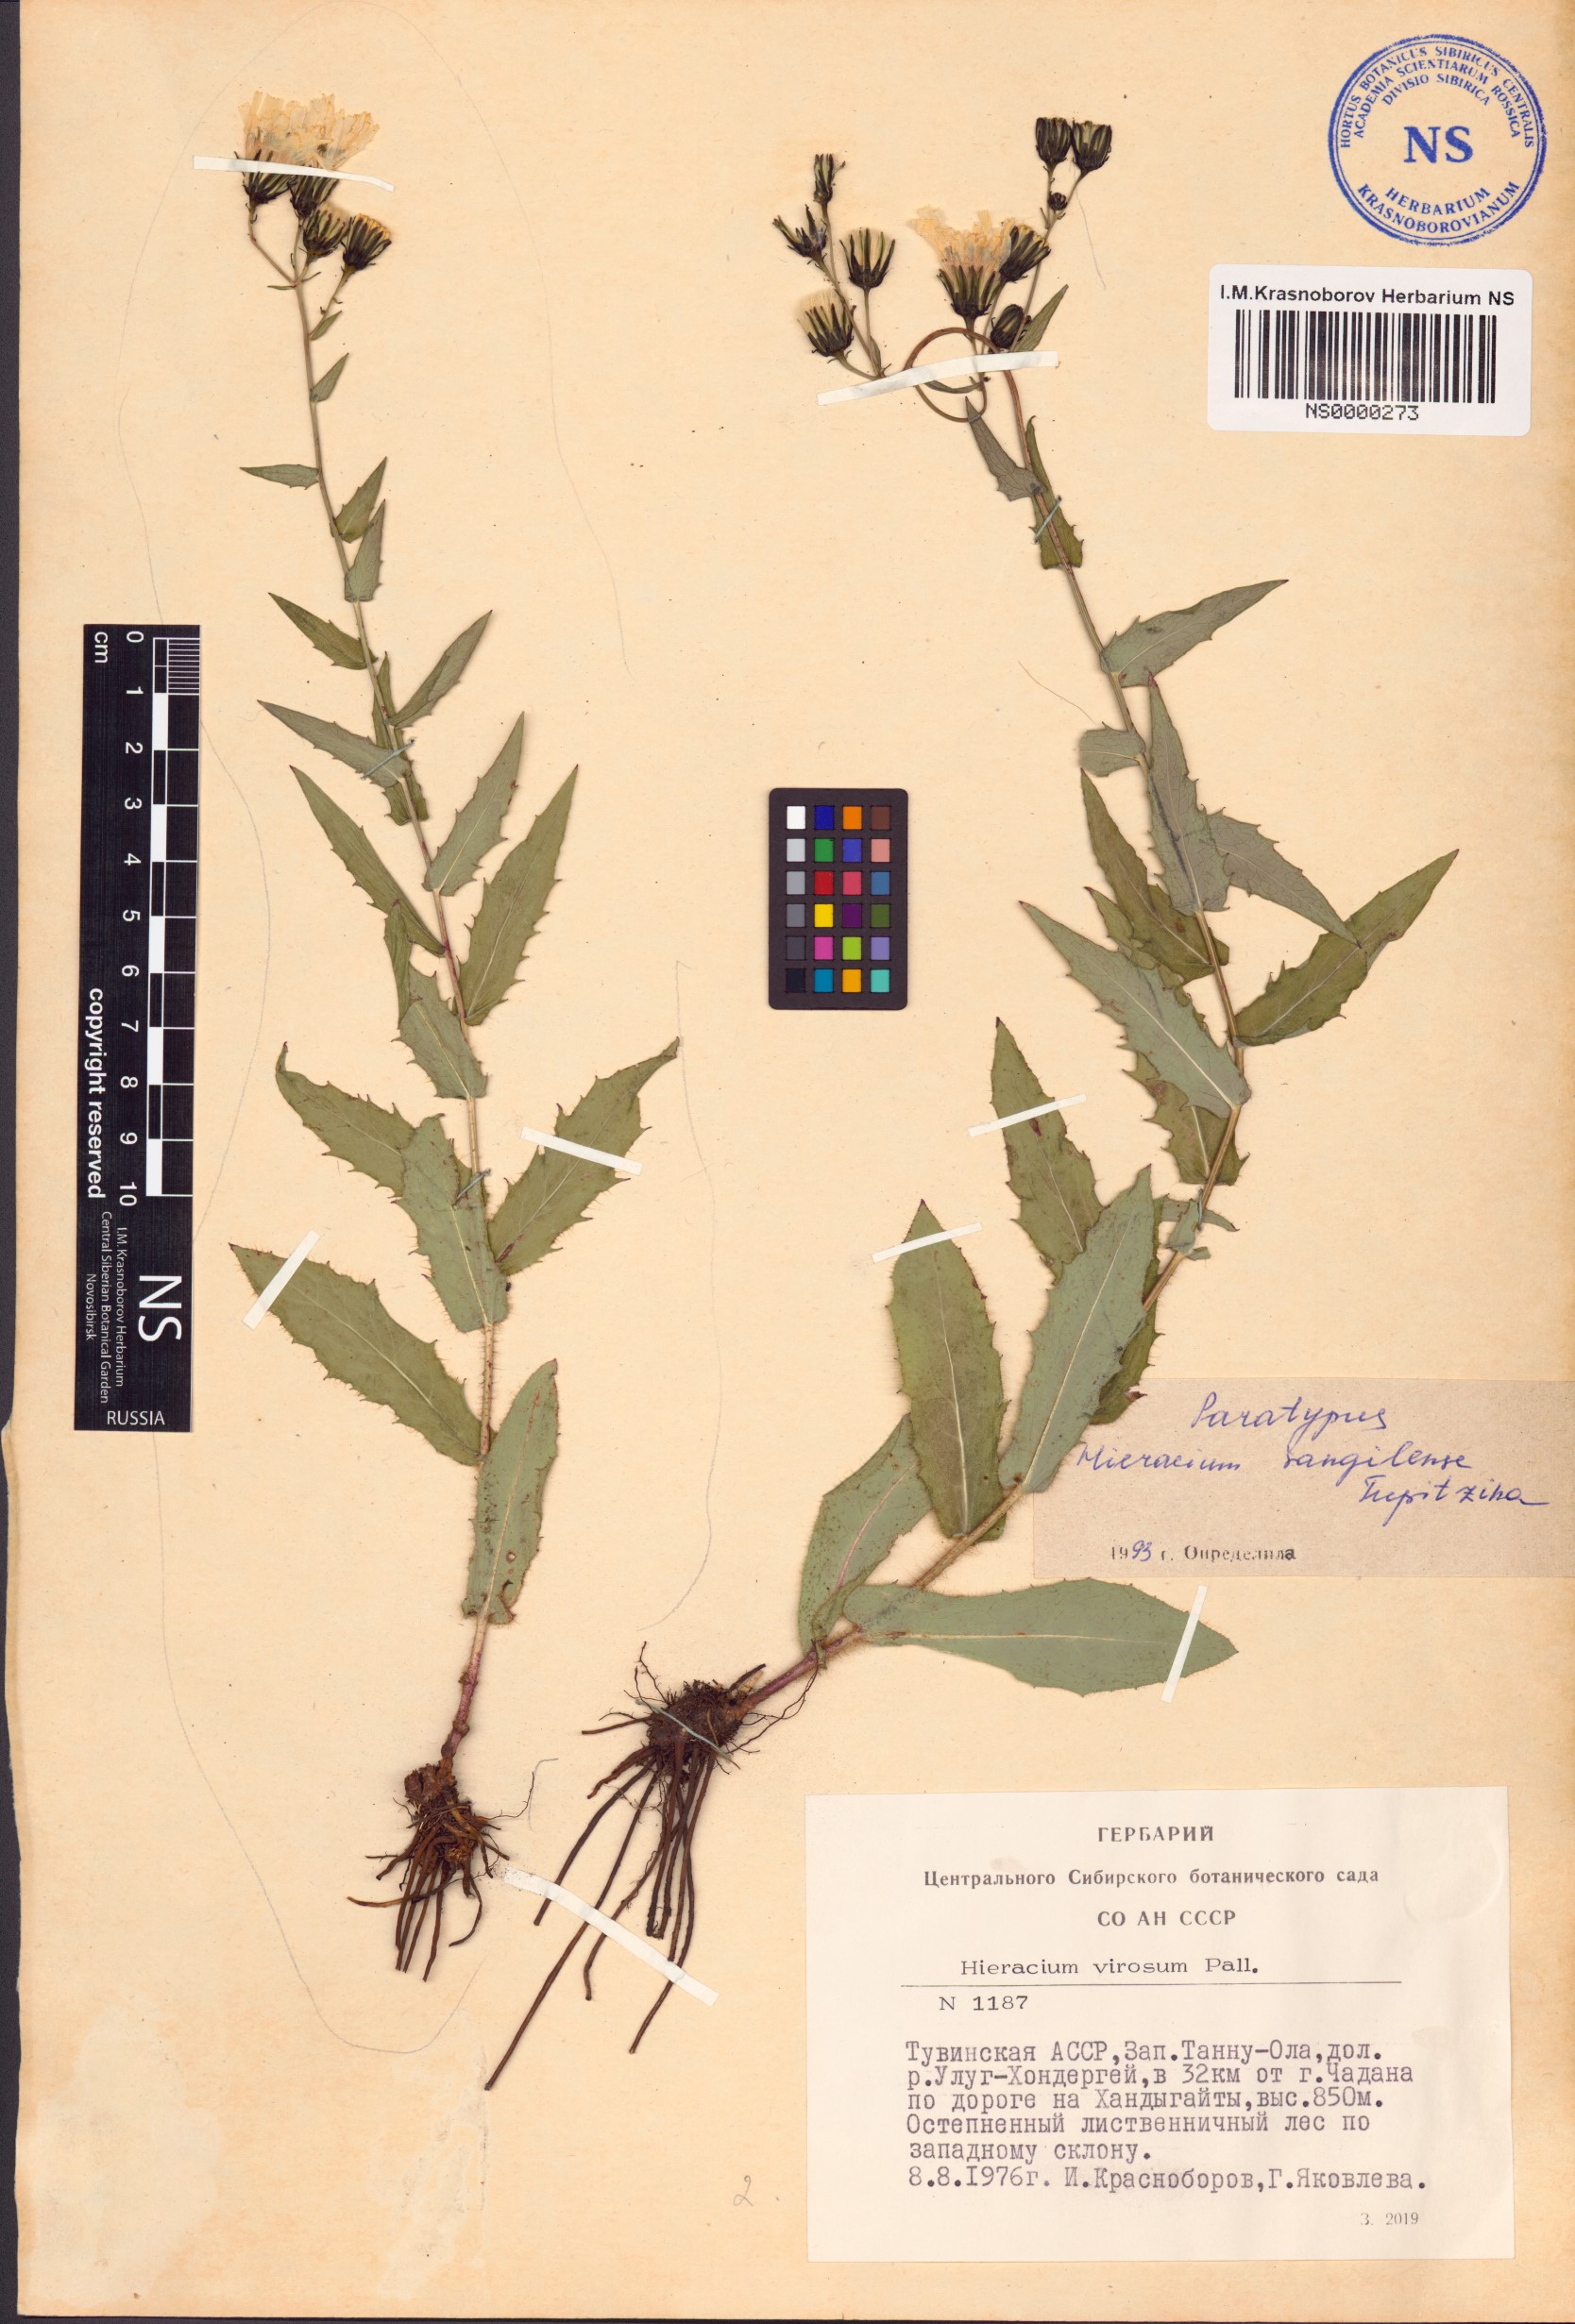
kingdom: Plantae
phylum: Tracheophyta
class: Magnoliopsida
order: Asterales
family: Asteraceae
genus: Hieracium
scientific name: Hieracium sangilense
